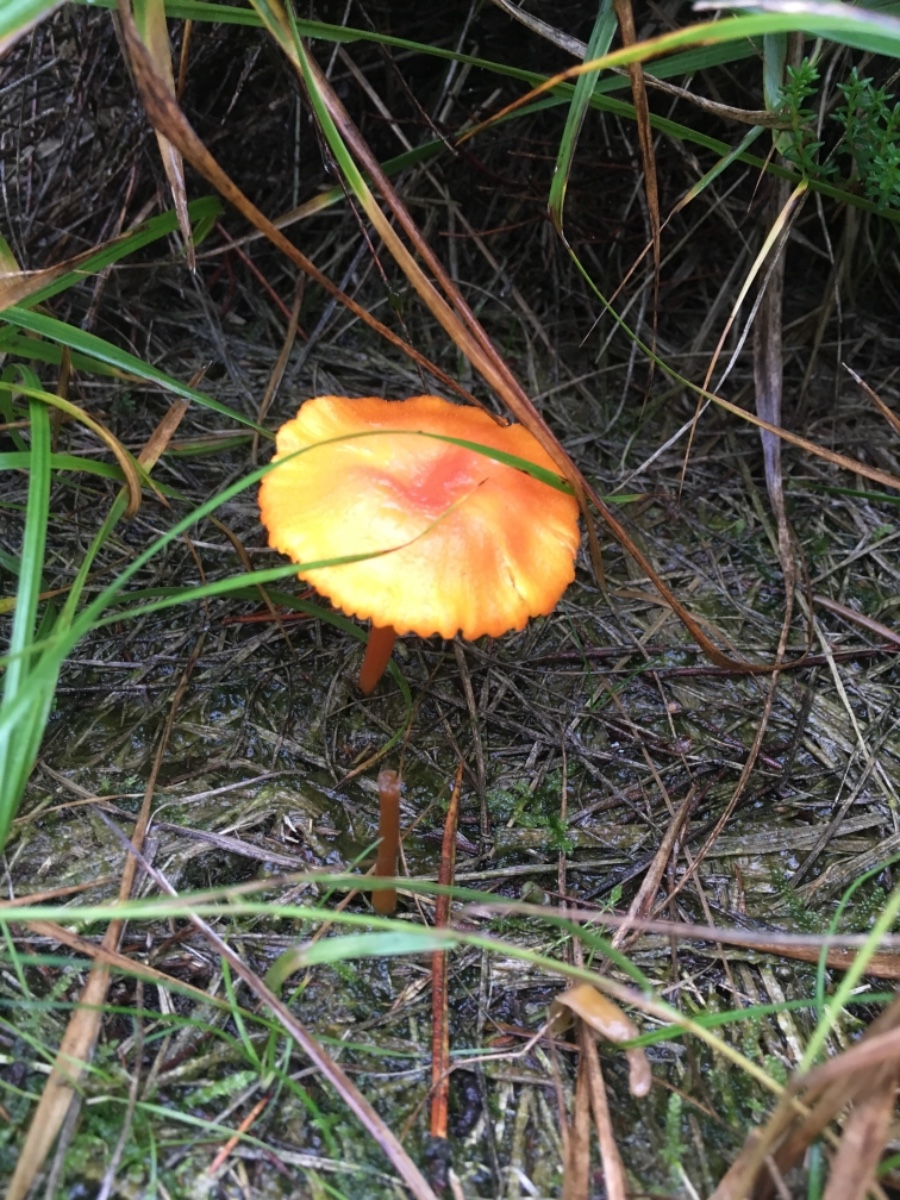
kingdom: Fungi
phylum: Basidiomycota
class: Agaricomycetes
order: Agaricales
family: Hygrophoraceae
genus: Hygrocybe
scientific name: Hygrocybe cantharellus
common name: kantarel-vokshat
